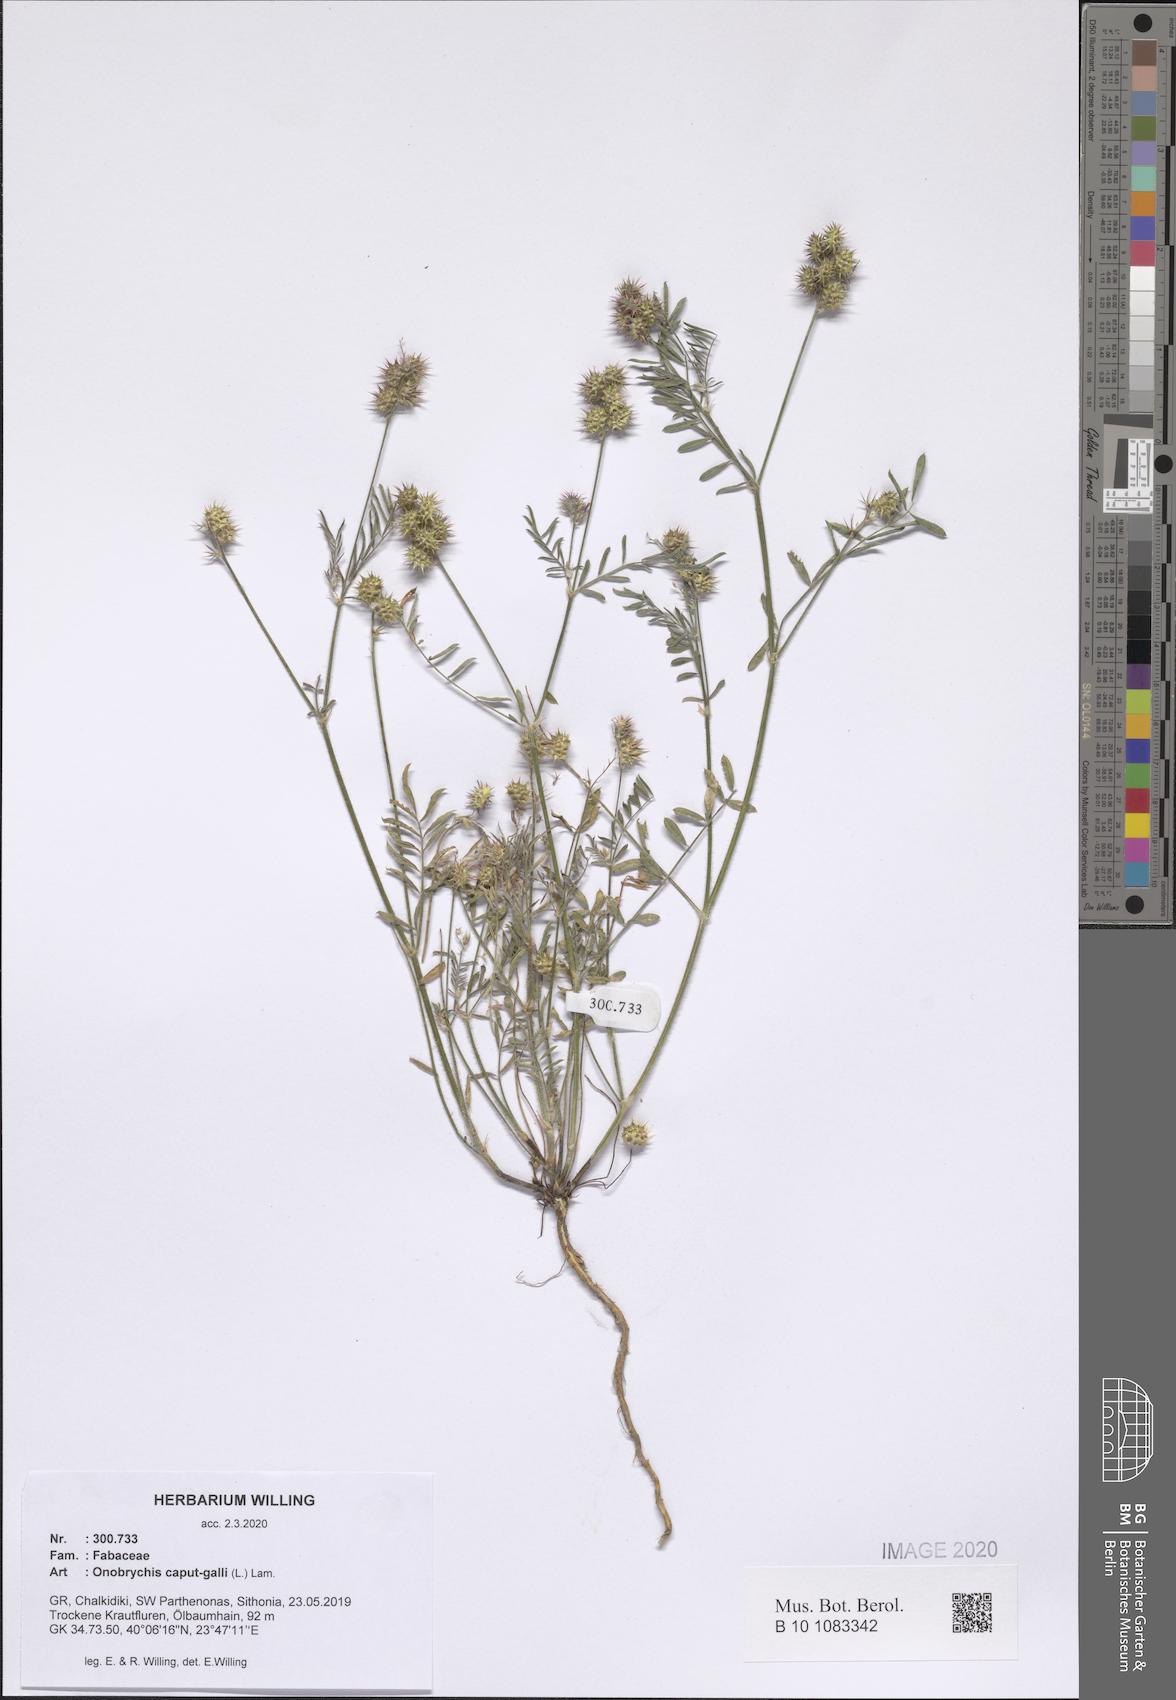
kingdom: Plantae
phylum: Tracheophyta
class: Magnoliopsida
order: Fabales
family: Fabaceae
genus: Onobrychis
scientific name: Onobrychis caput-galli
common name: Cockscomb sainfoin
